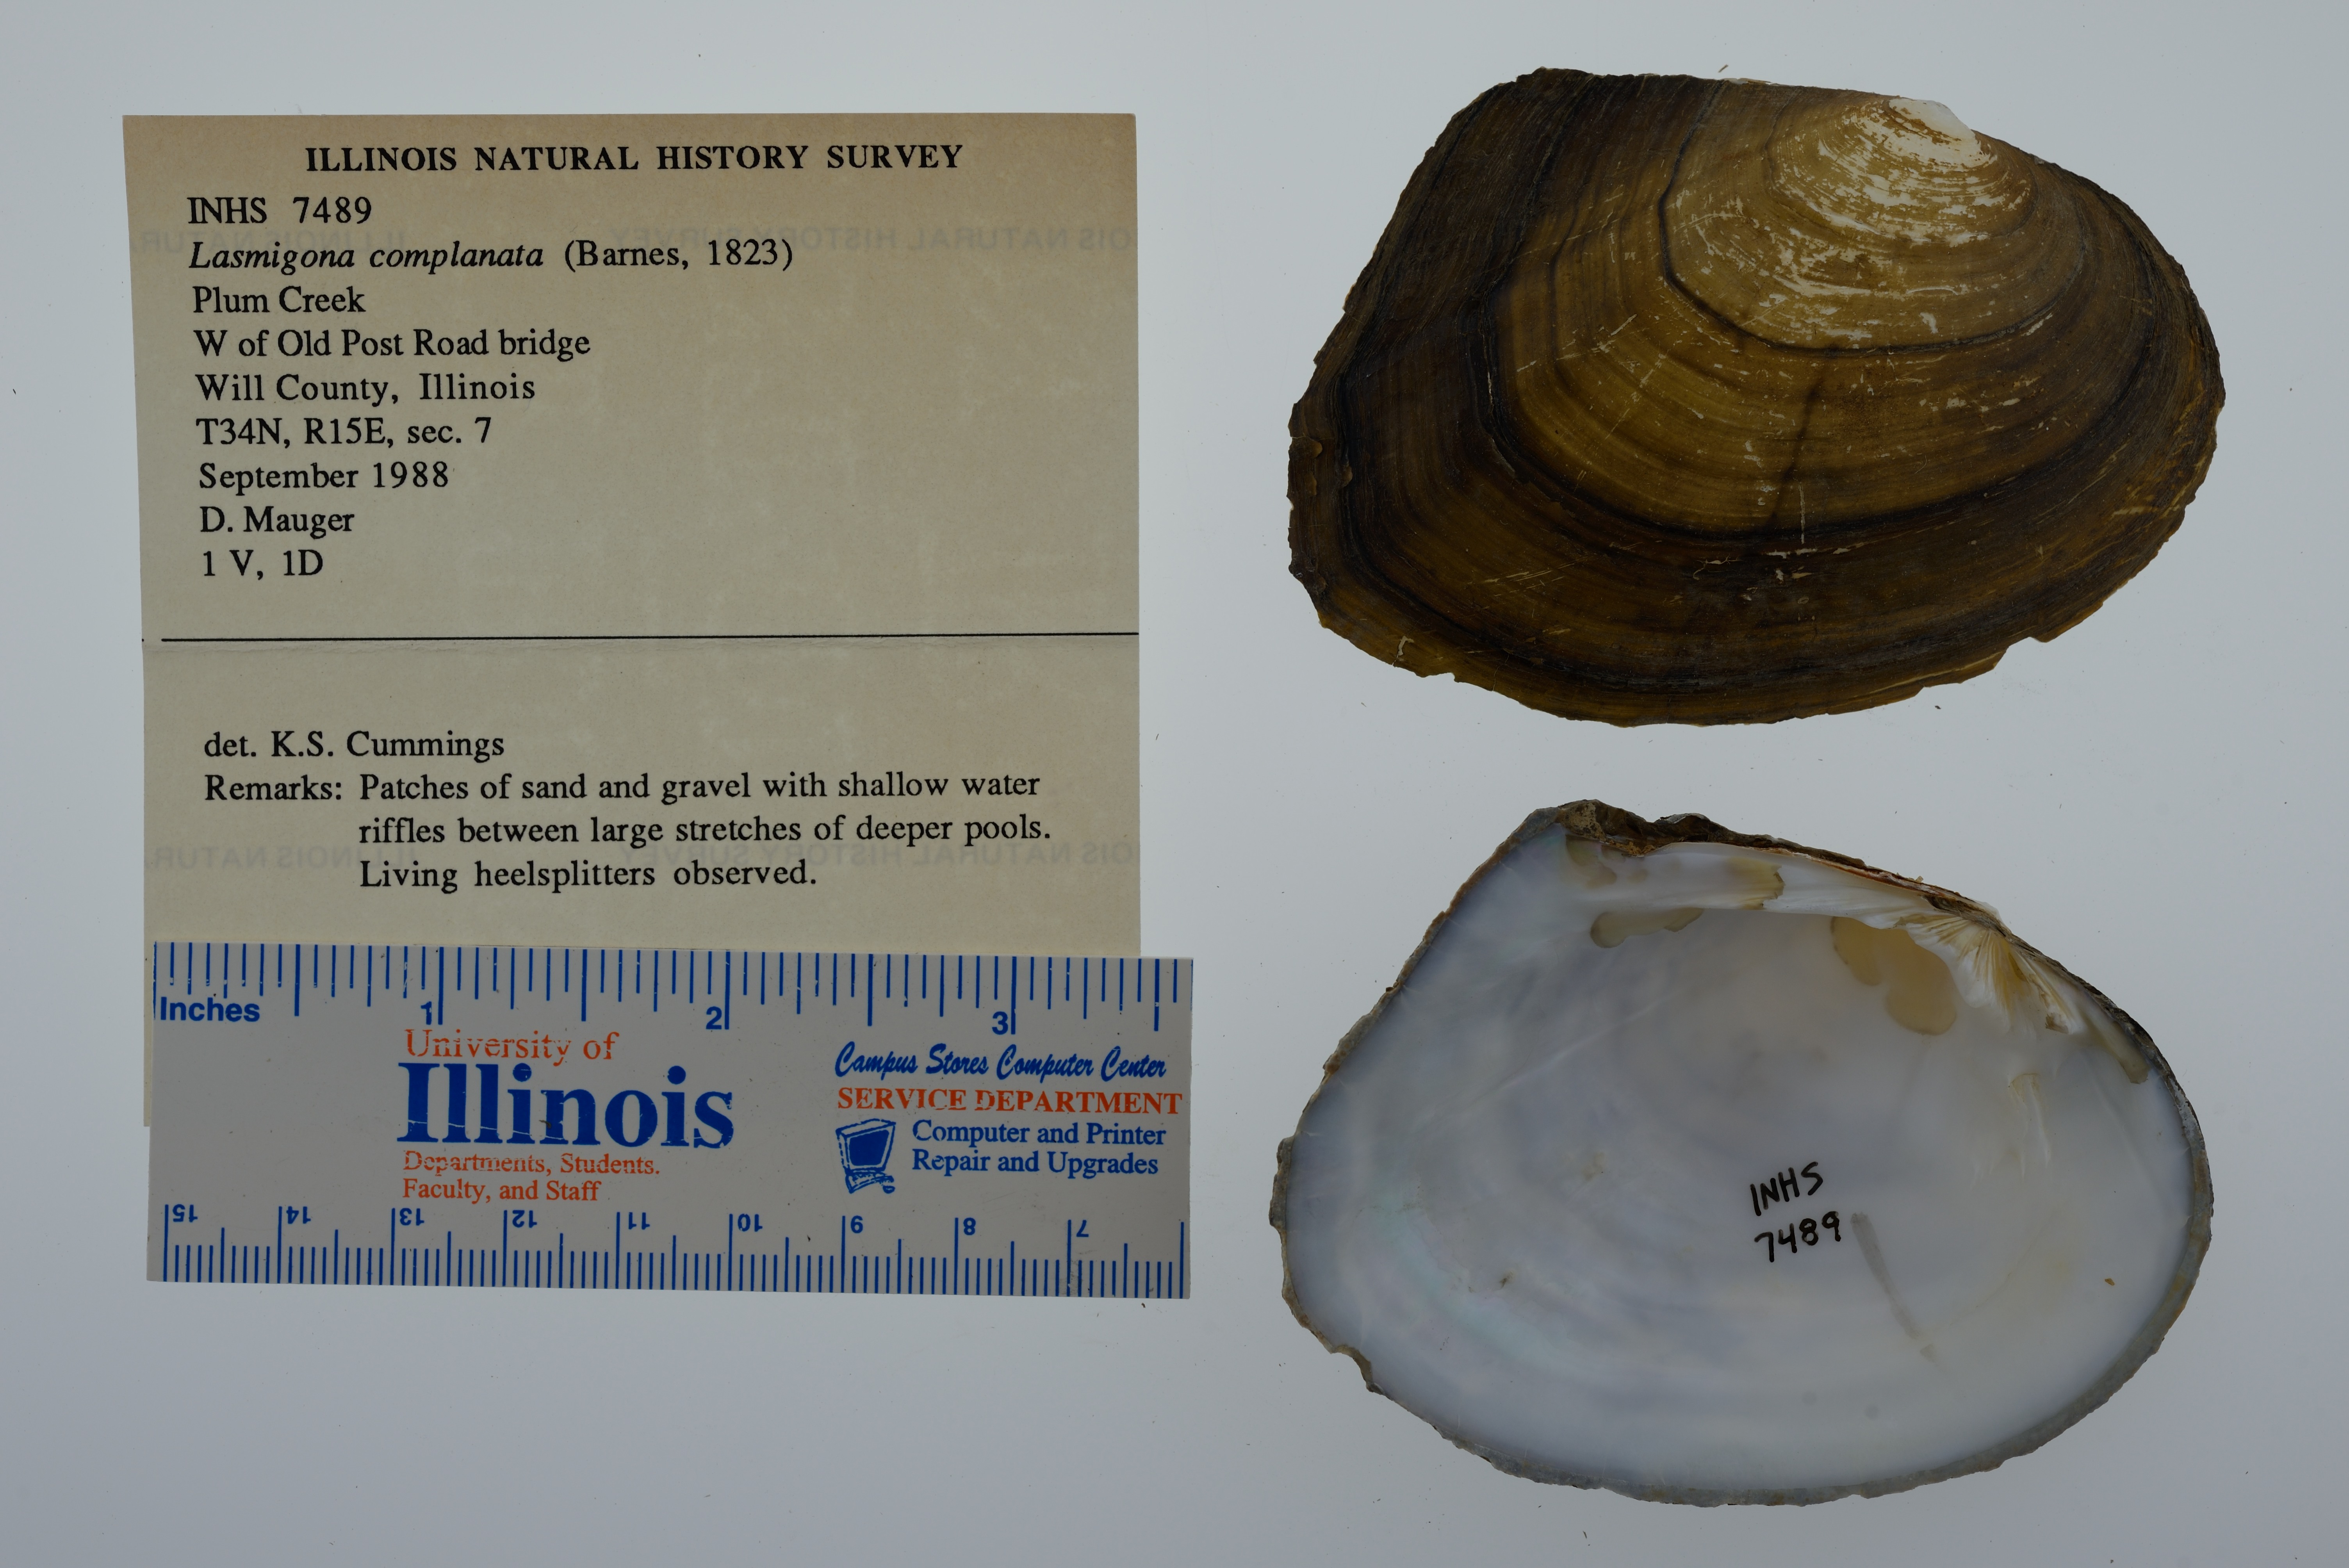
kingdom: Animalia
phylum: Mollusca
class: Bivalvia
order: Unionida
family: Unionidae
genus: Lasmigona
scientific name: Lasmigona complanata
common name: White heelsplitter
